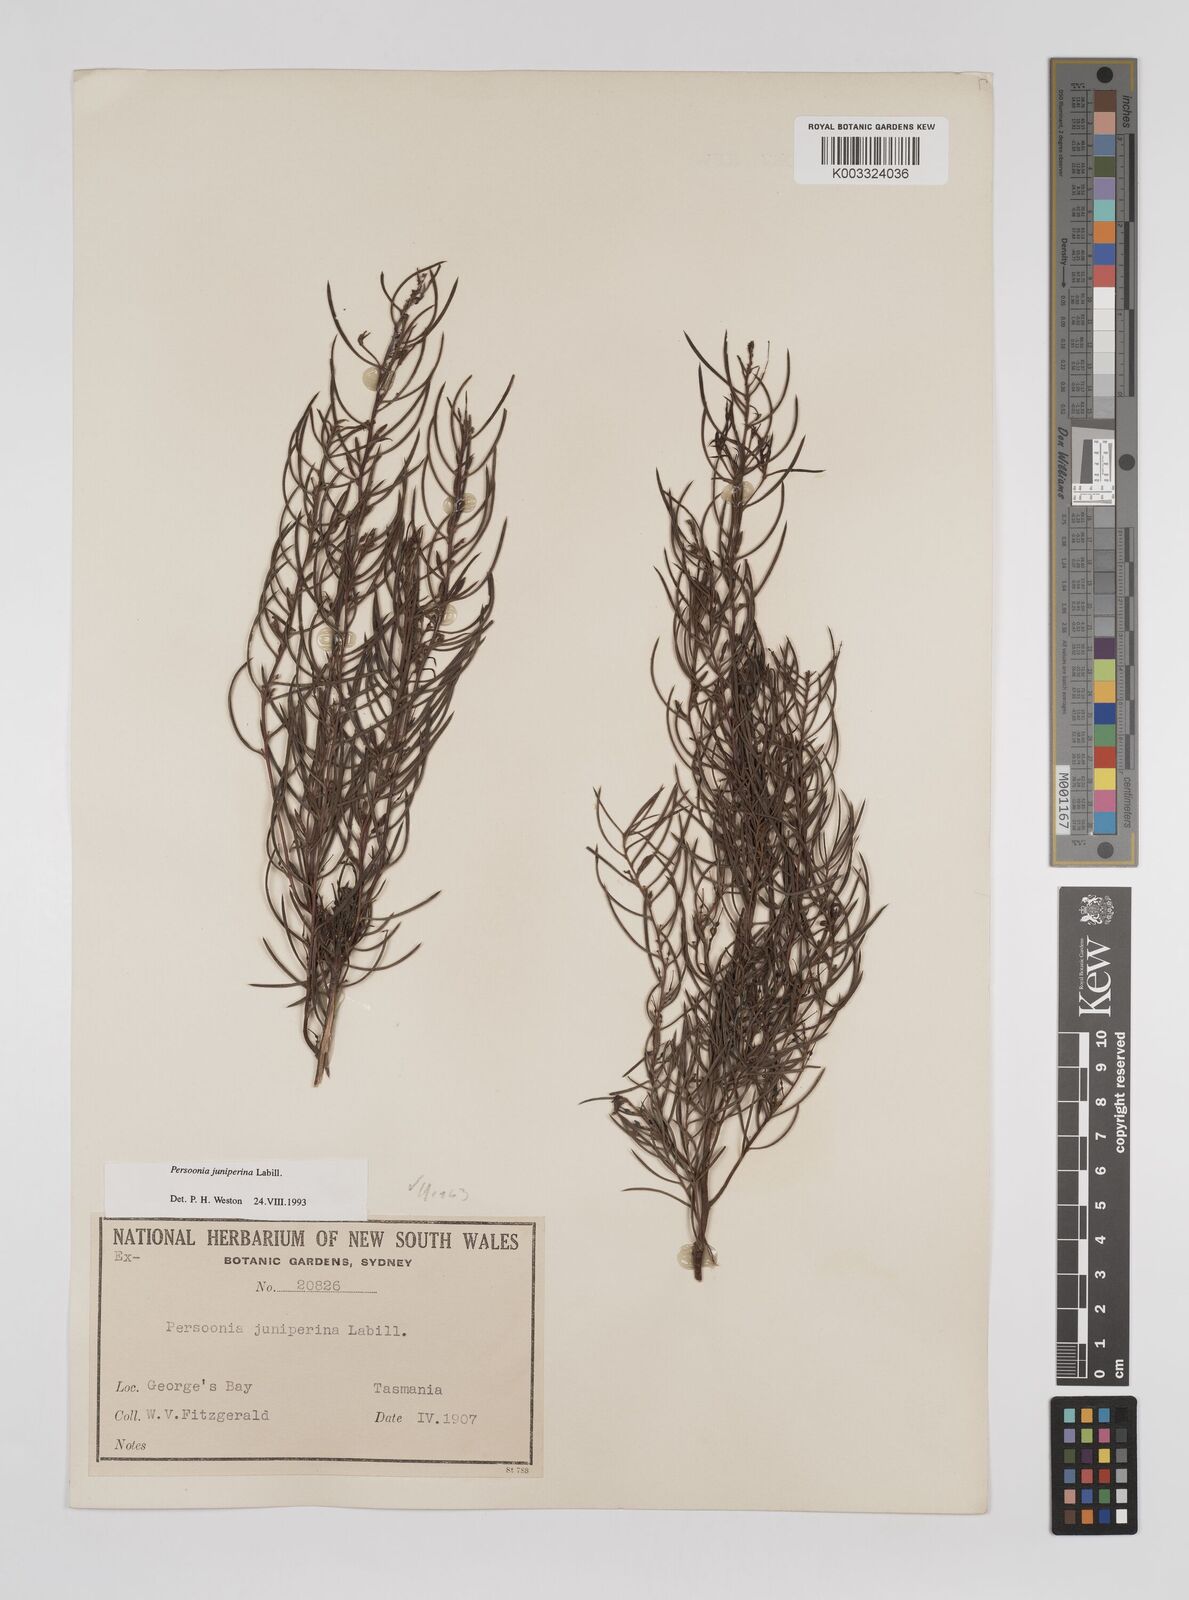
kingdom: Plantae
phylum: Tracheophyta
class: Magnoliopsida
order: Proteales
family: Proteaceae
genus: Persoonia
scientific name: Persoonia juniperina
